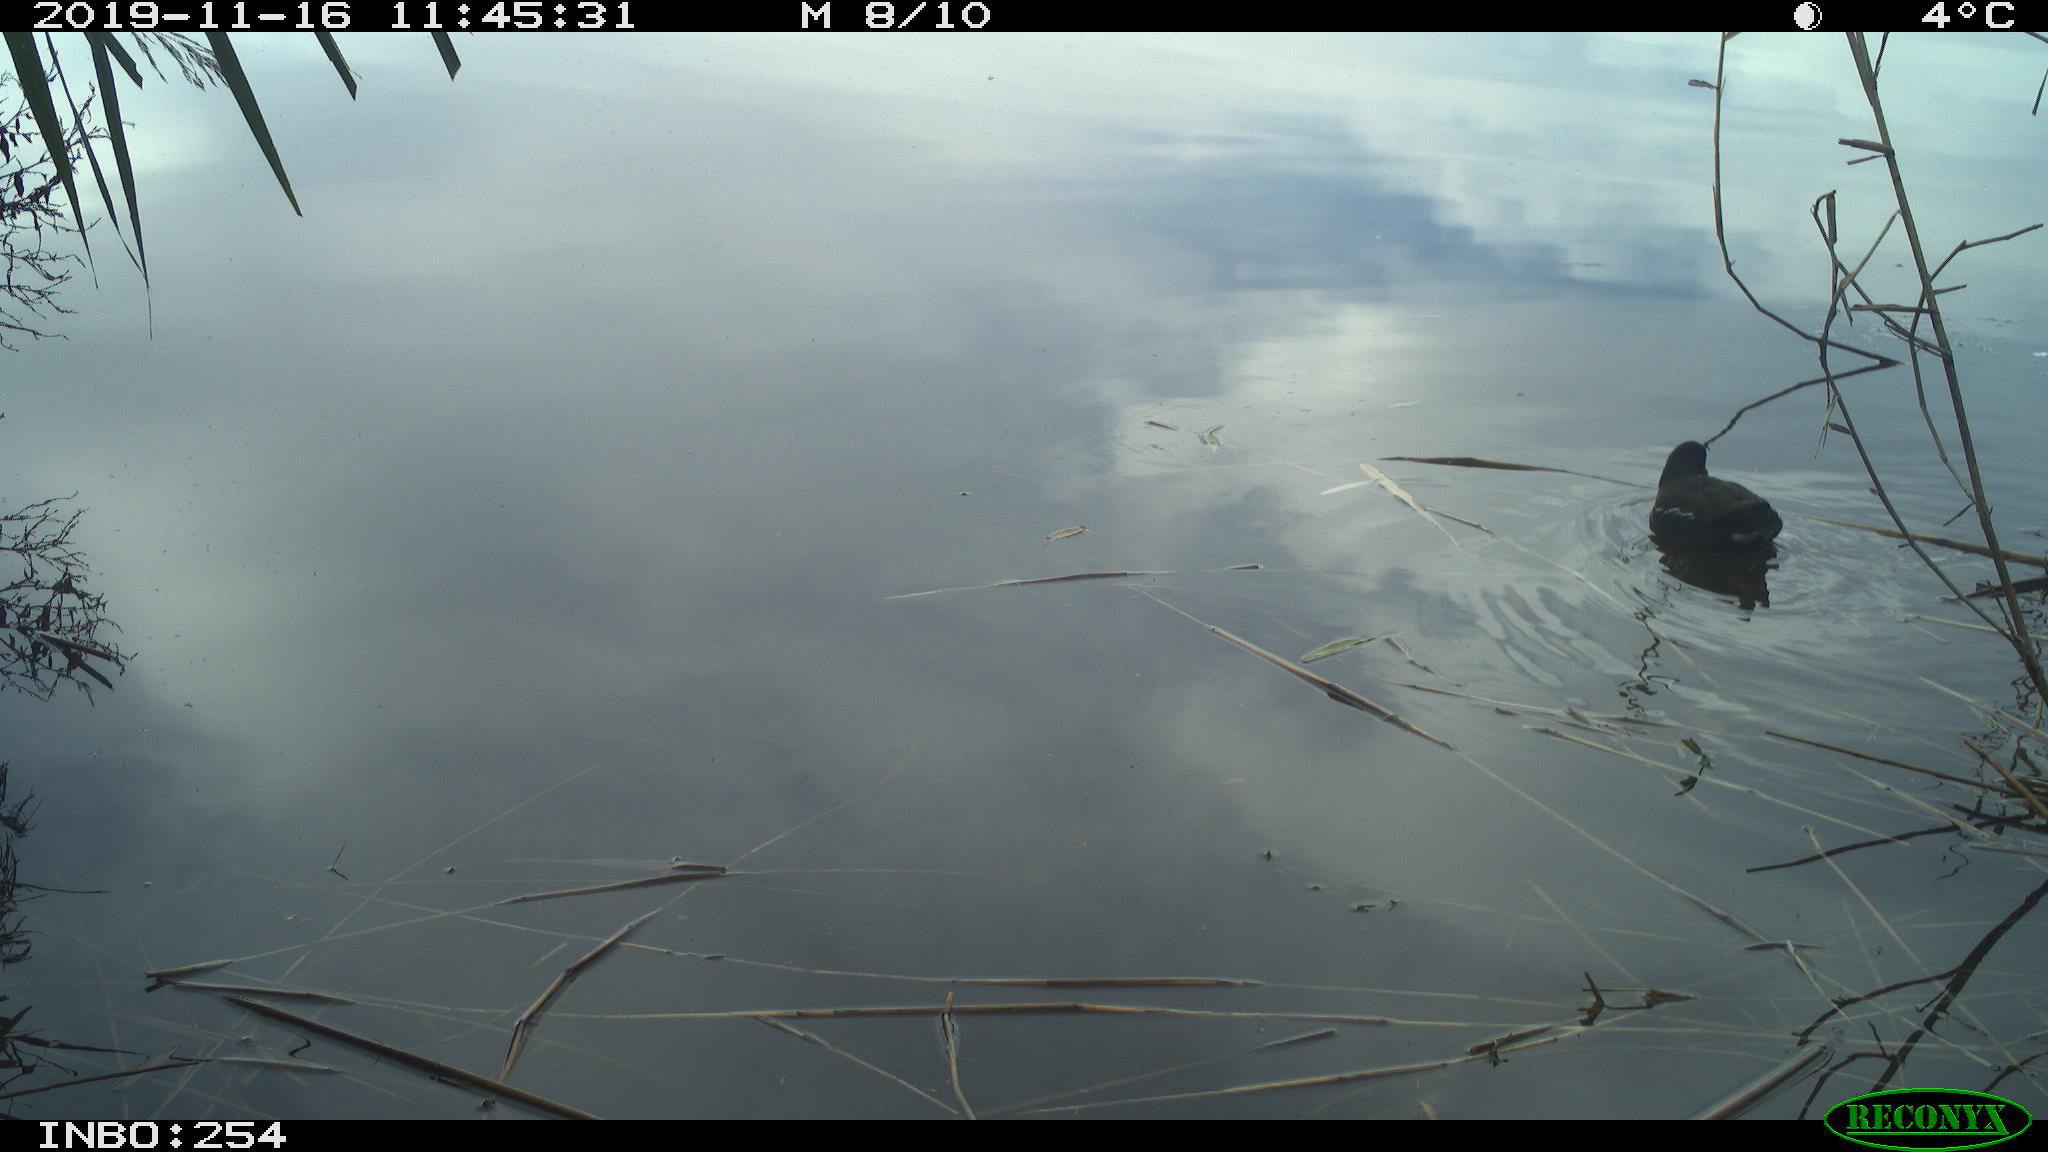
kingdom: Animalia
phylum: Chordata
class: Aves
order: Gruiformes
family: Rallidae
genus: Gallinula
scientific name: Gallinula chloropus
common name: Common moorhen
